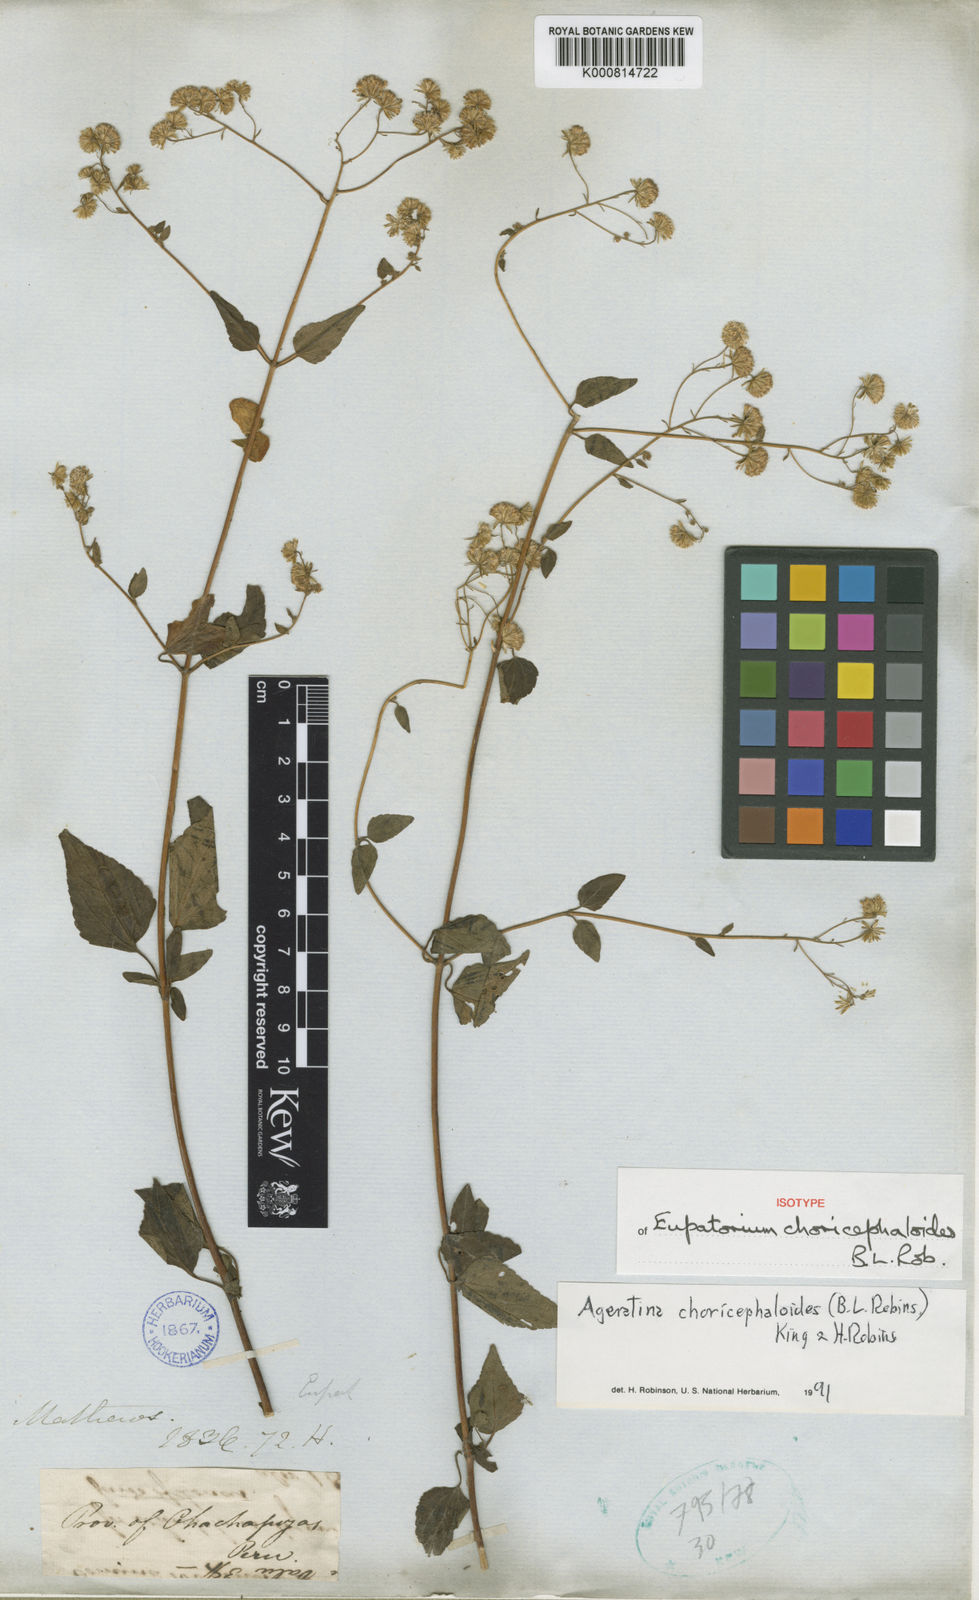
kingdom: Plantae
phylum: Tracheophyta
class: Magnoliopsida
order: Asterales
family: Asteraceae
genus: Ageratina
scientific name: Ageratina choricephaloides
